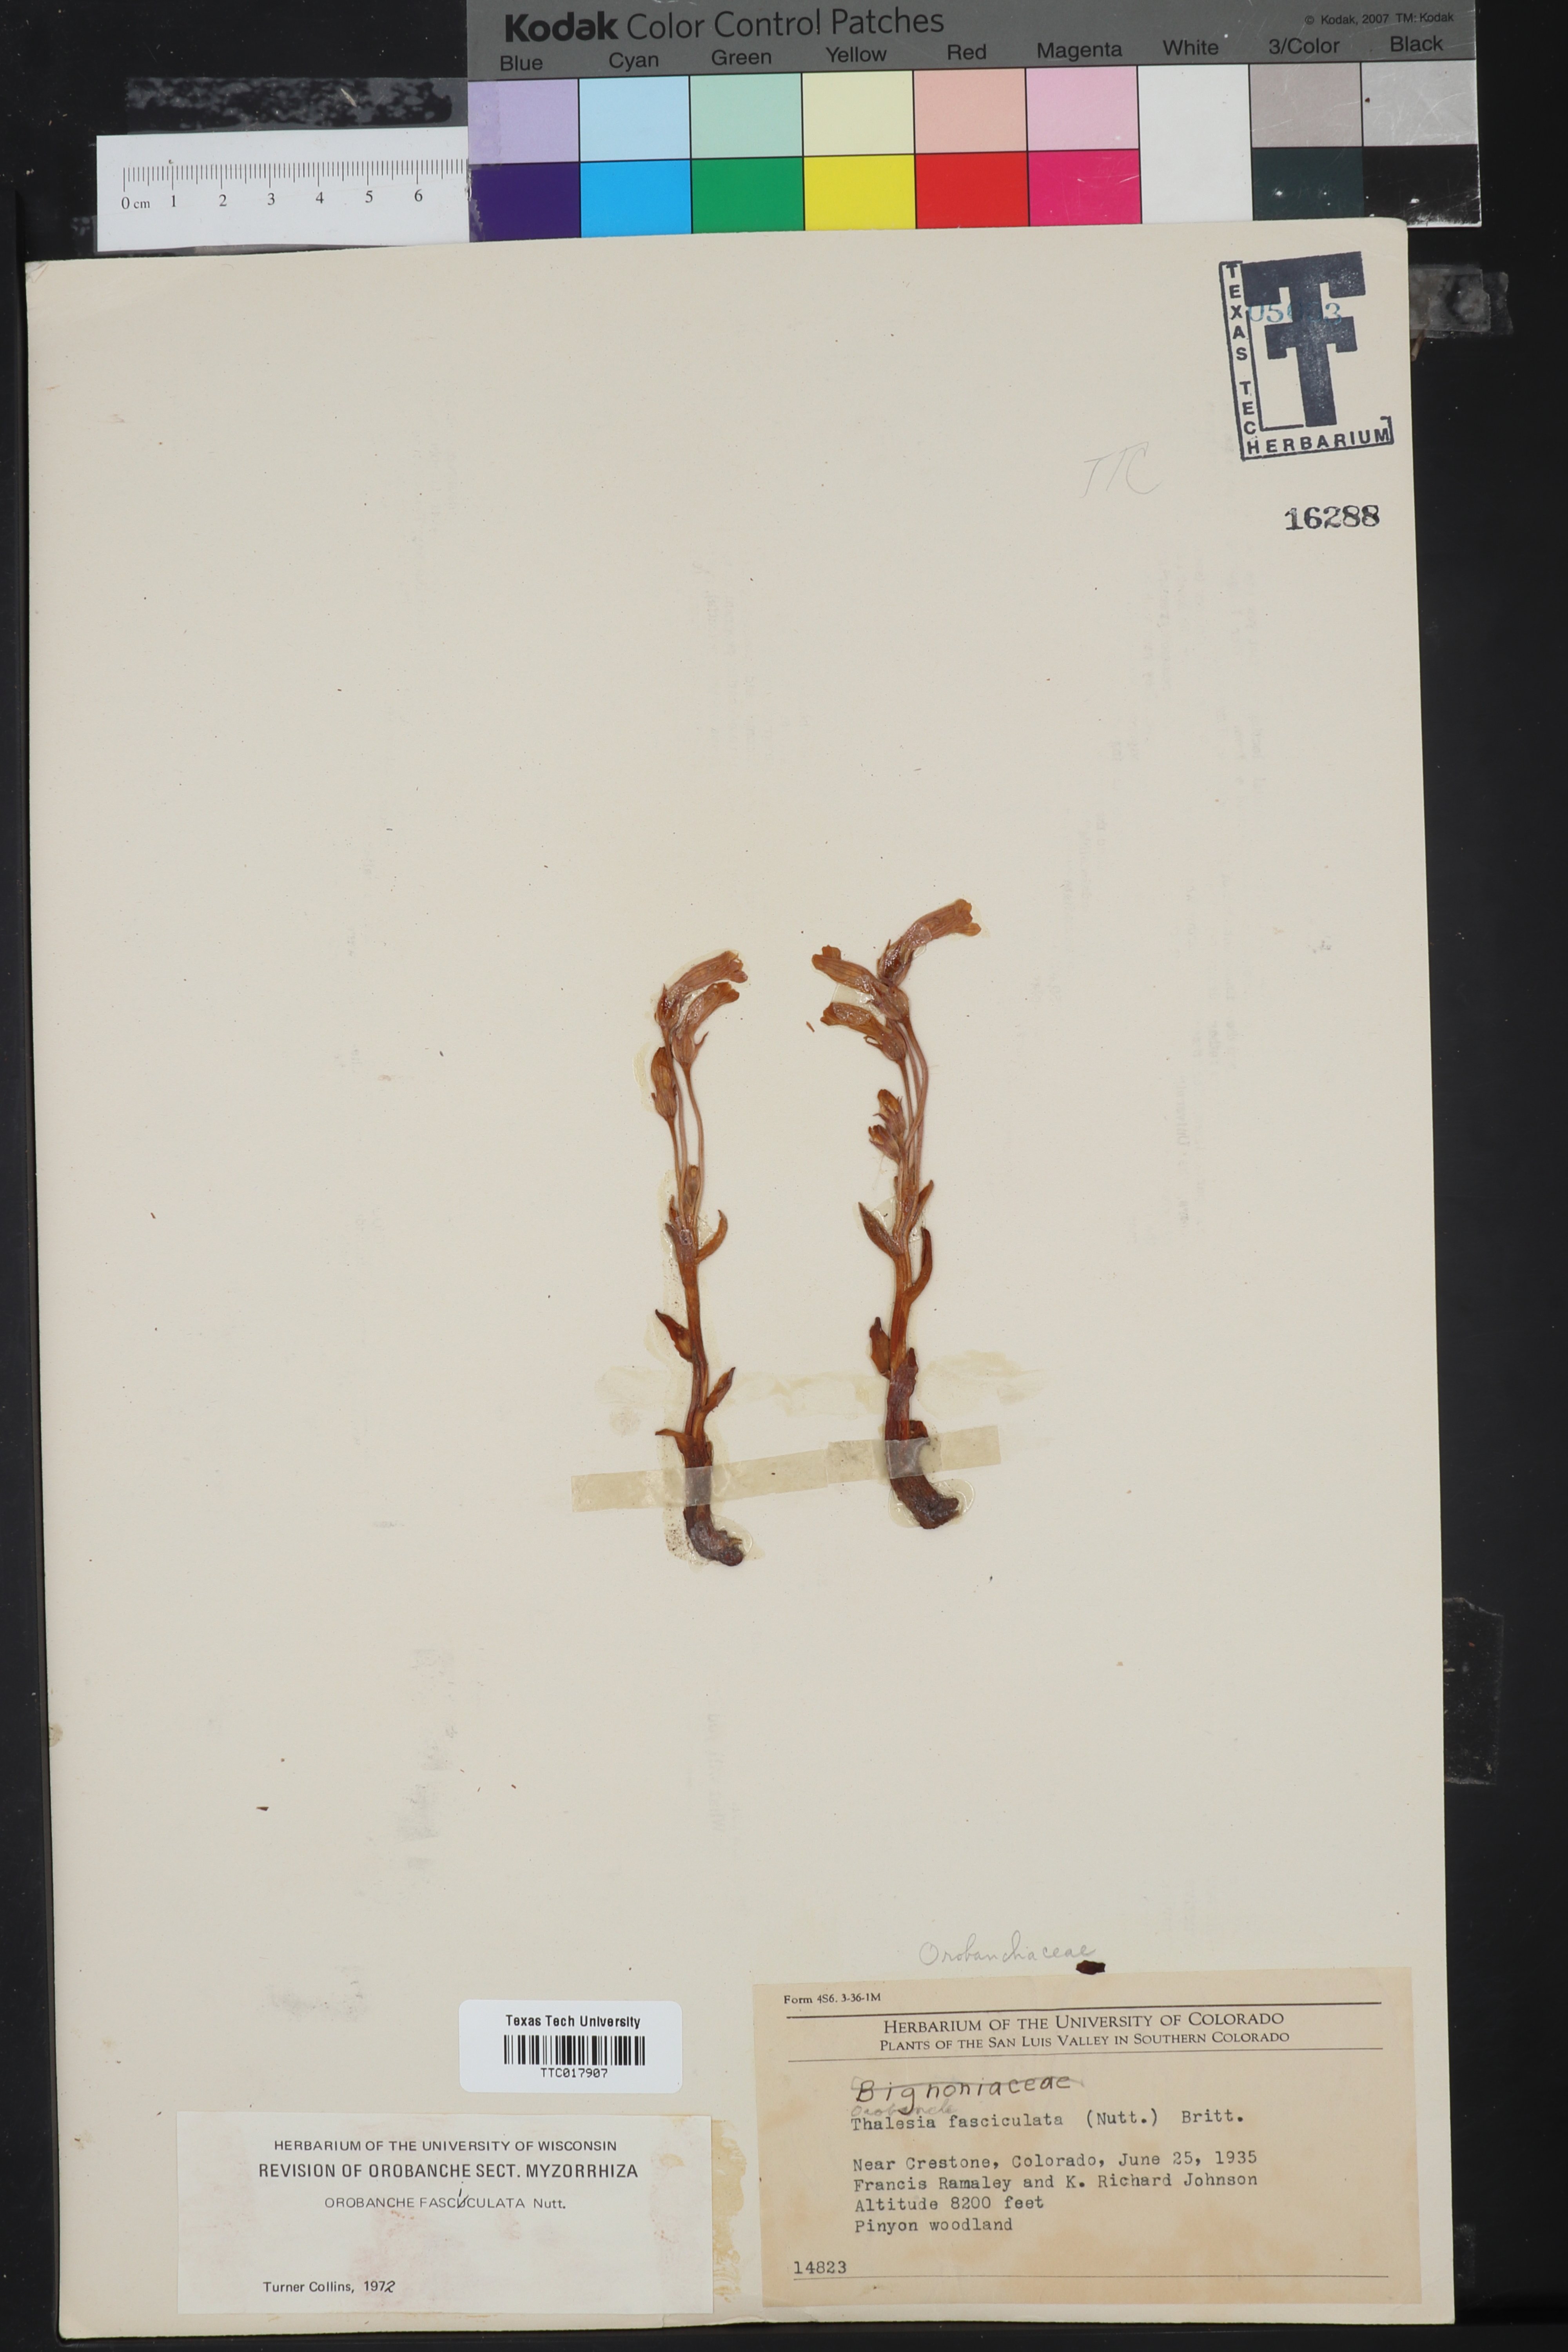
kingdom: Plantae
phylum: Tracheophyta
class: Magnoliopsida
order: Lamiales
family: Orobanchaceae
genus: Aphyllon
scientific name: Aphyllon fasciculatum
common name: Clustered broomrape
